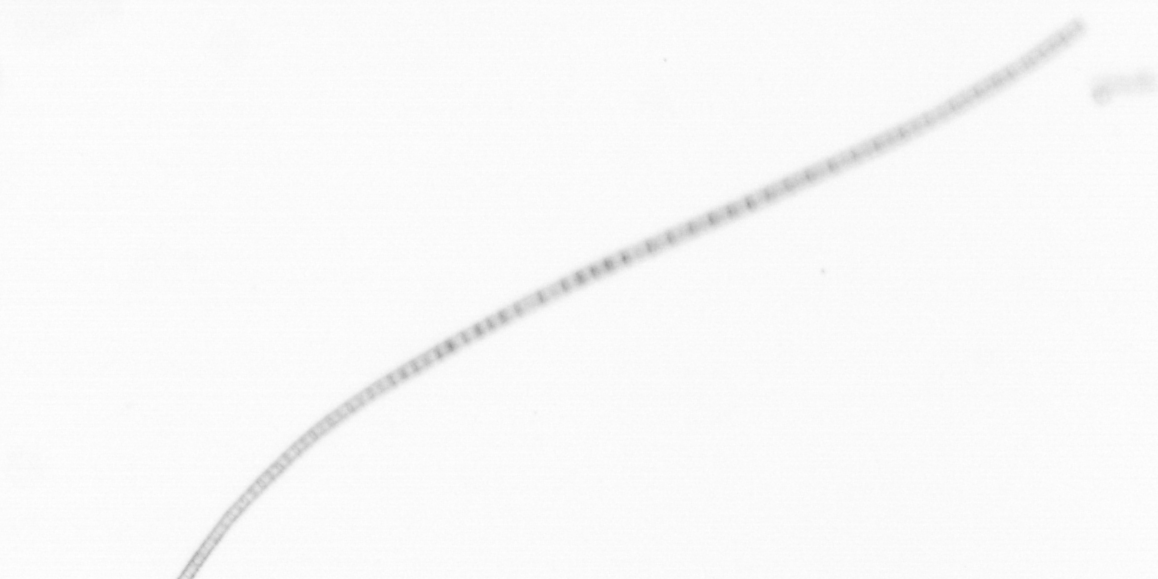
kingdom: Chromista
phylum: Ochrophyta
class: Bacillariophyceae
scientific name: Bacillariophyceae
